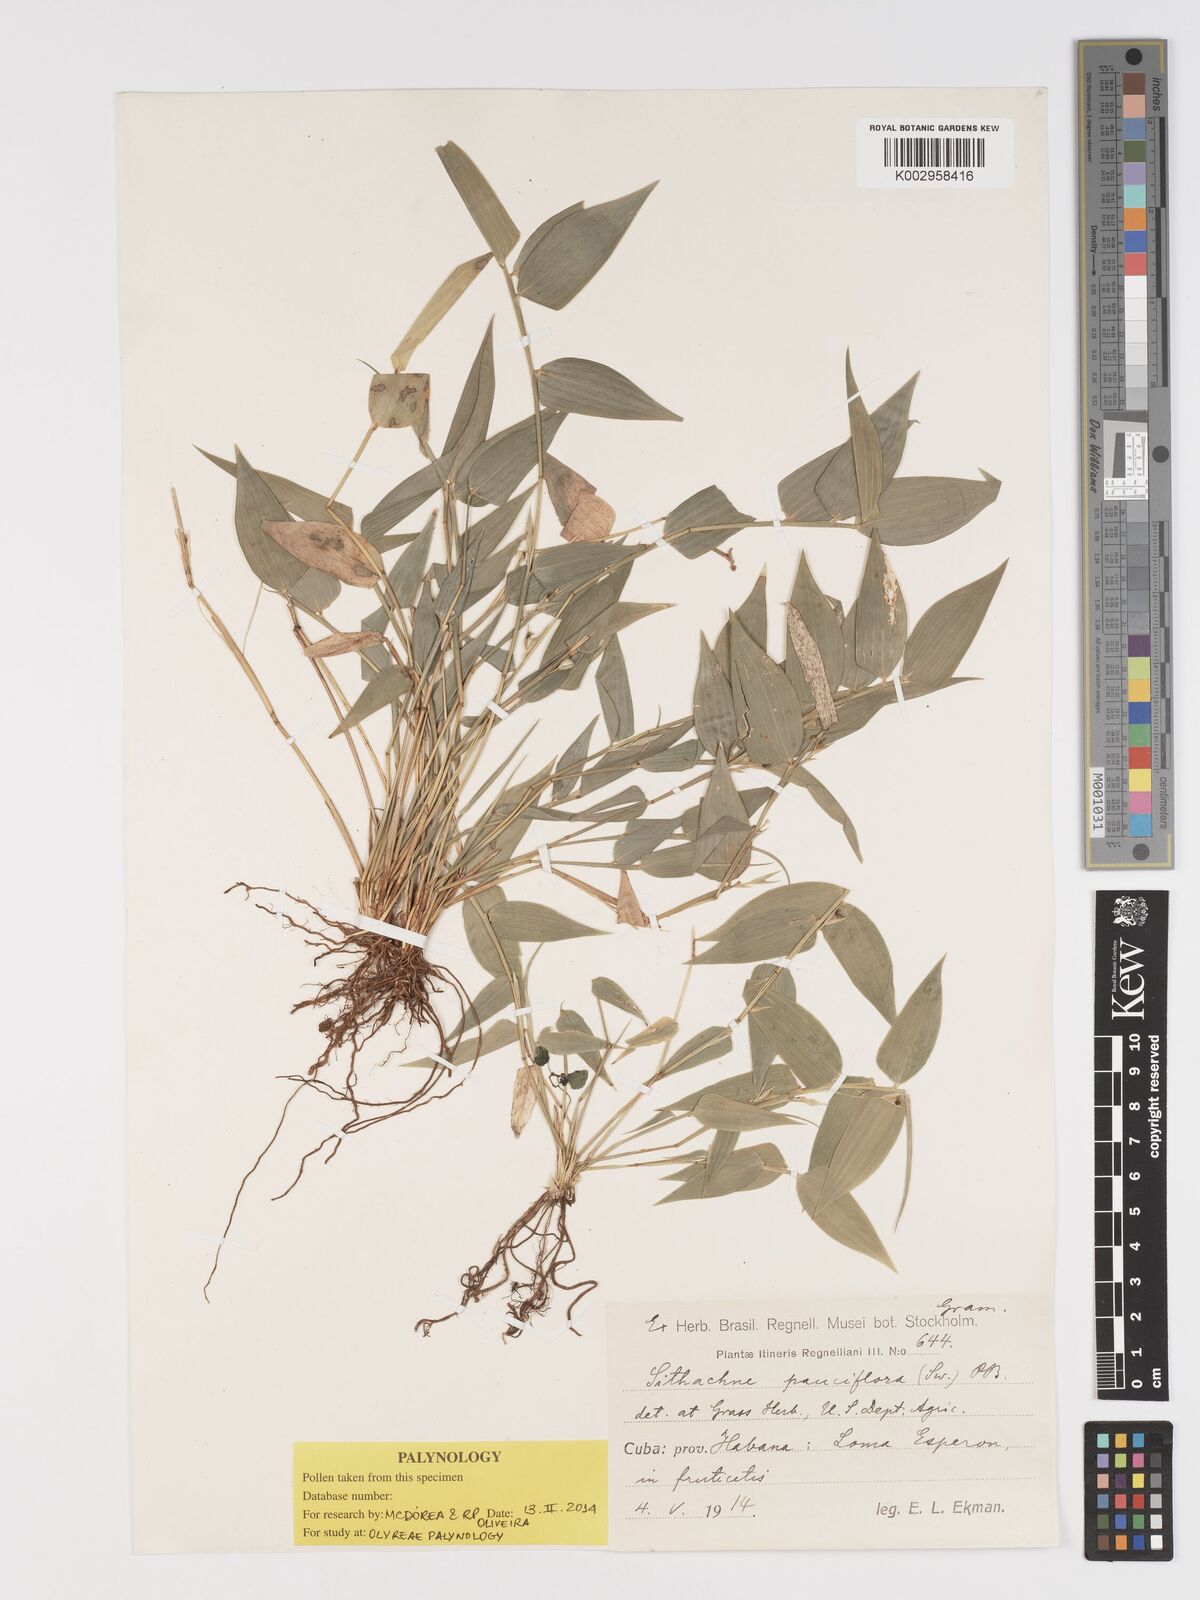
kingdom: Plantae
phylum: Tracheophyta
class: Liliopsida
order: Poales
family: Poaceae
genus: Lithachne
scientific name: Lithachne pauciflora
